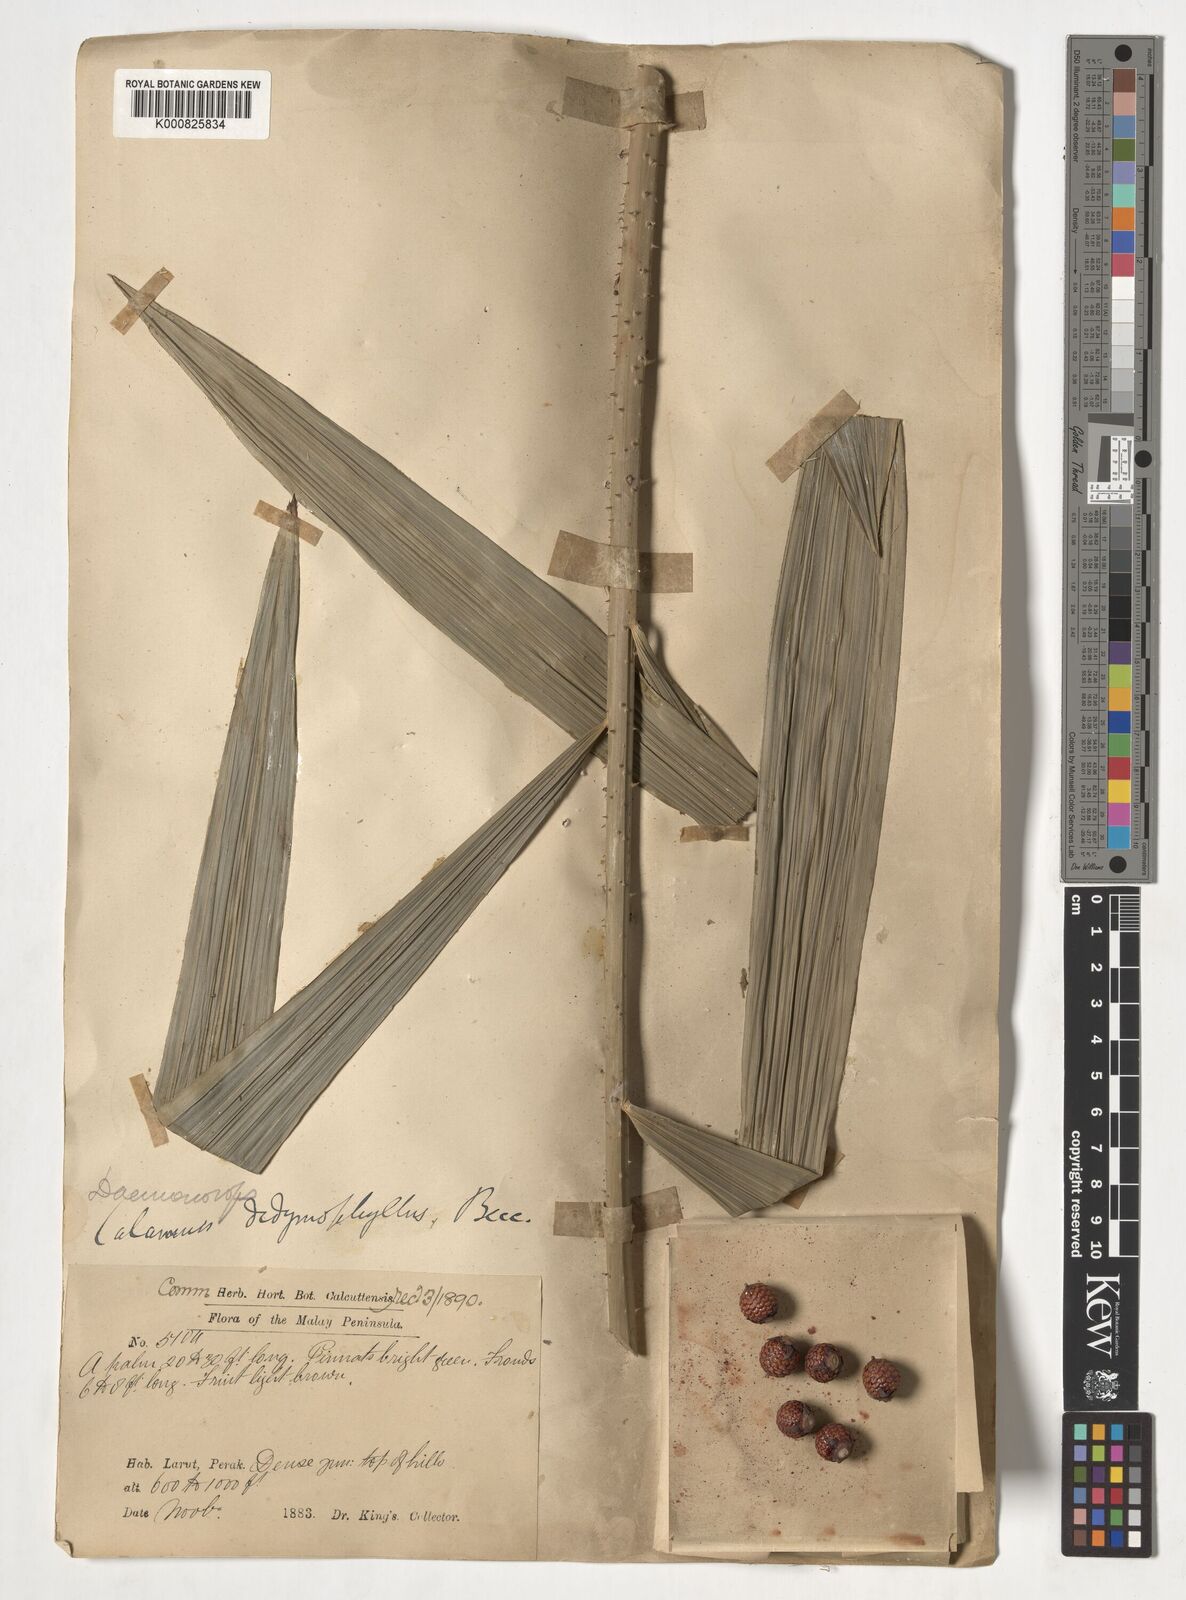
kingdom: Plantae
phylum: Tracheophyta
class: Liliopsida
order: Arecales
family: Arecaceae
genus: Calamus
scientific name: Calamus gracilipes
